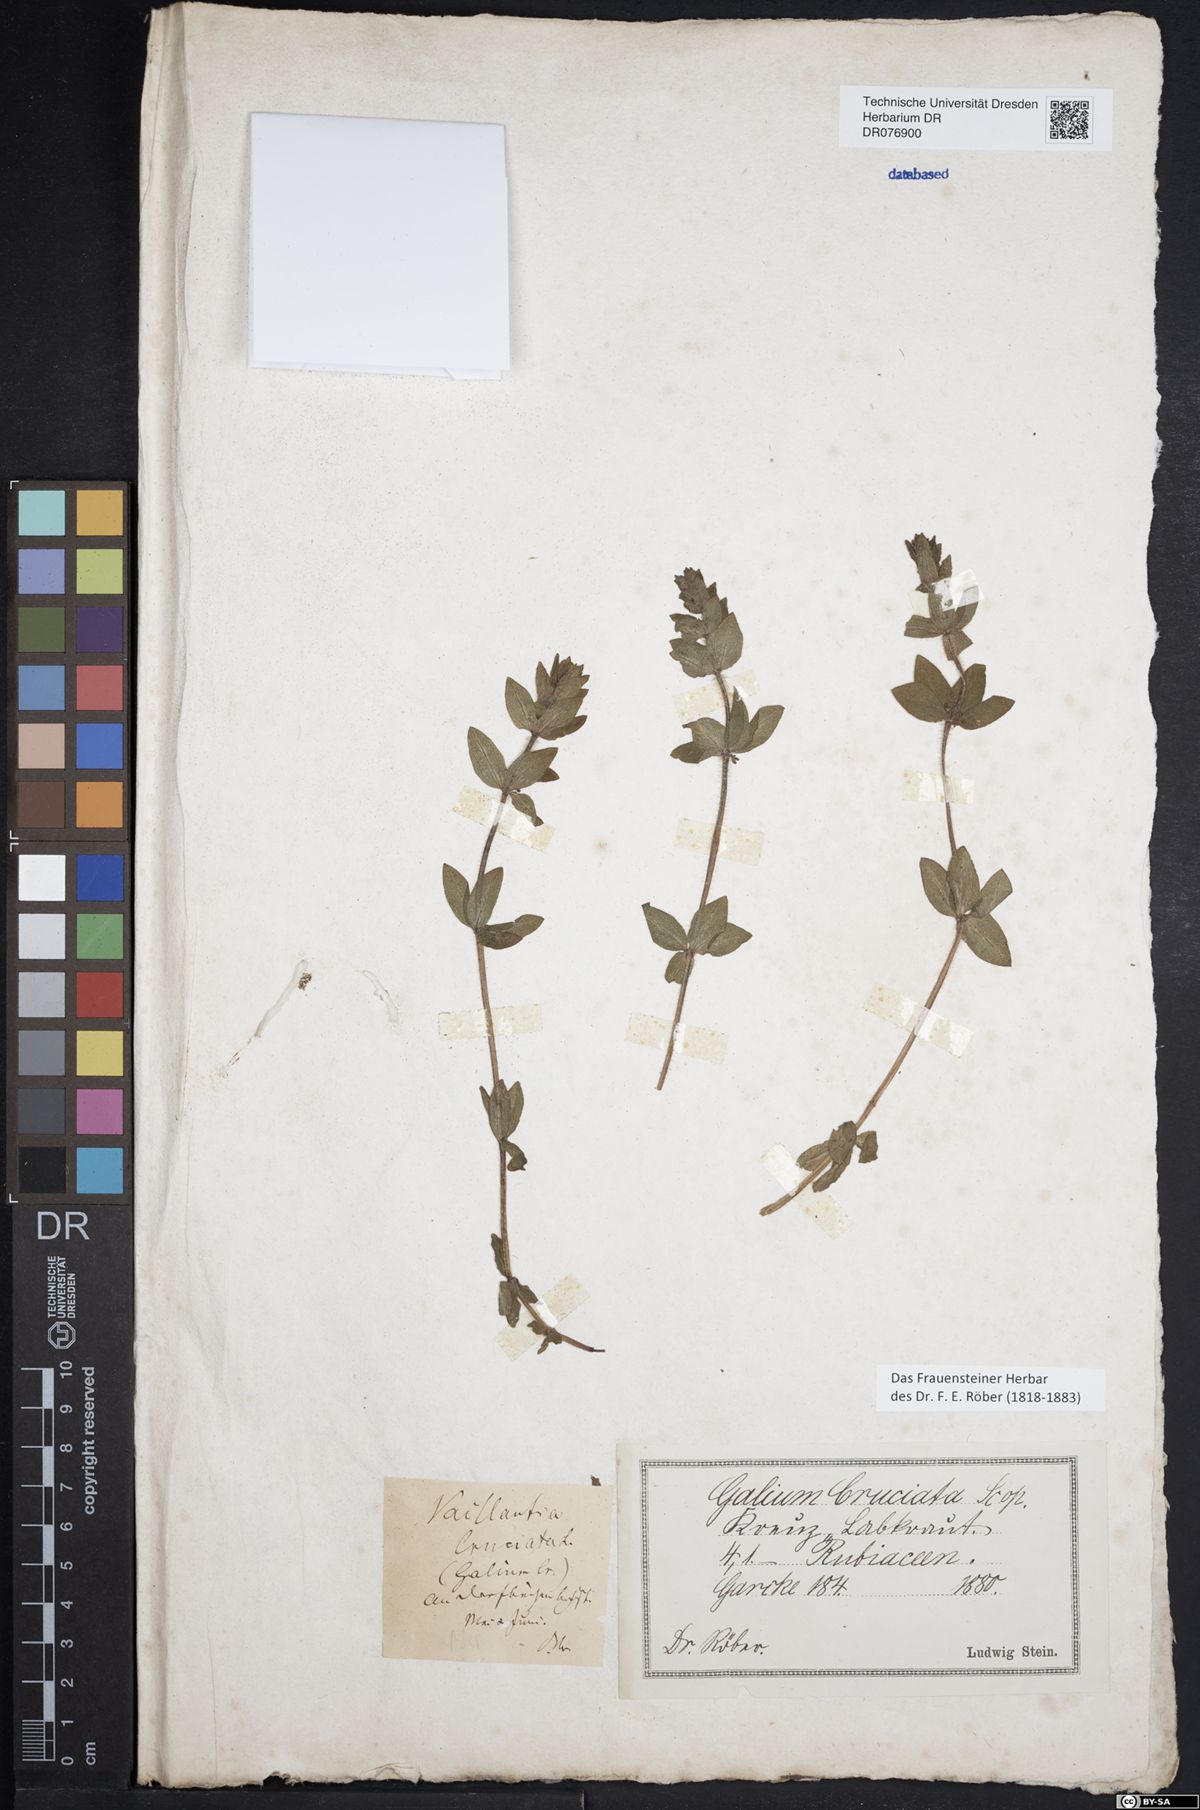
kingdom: Plantae
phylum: Tracheophyta
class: Magnoliopsida
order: Gentianales
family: Rubiaceae
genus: Cruciata
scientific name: Cruciata laevipes
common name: Crosswort
